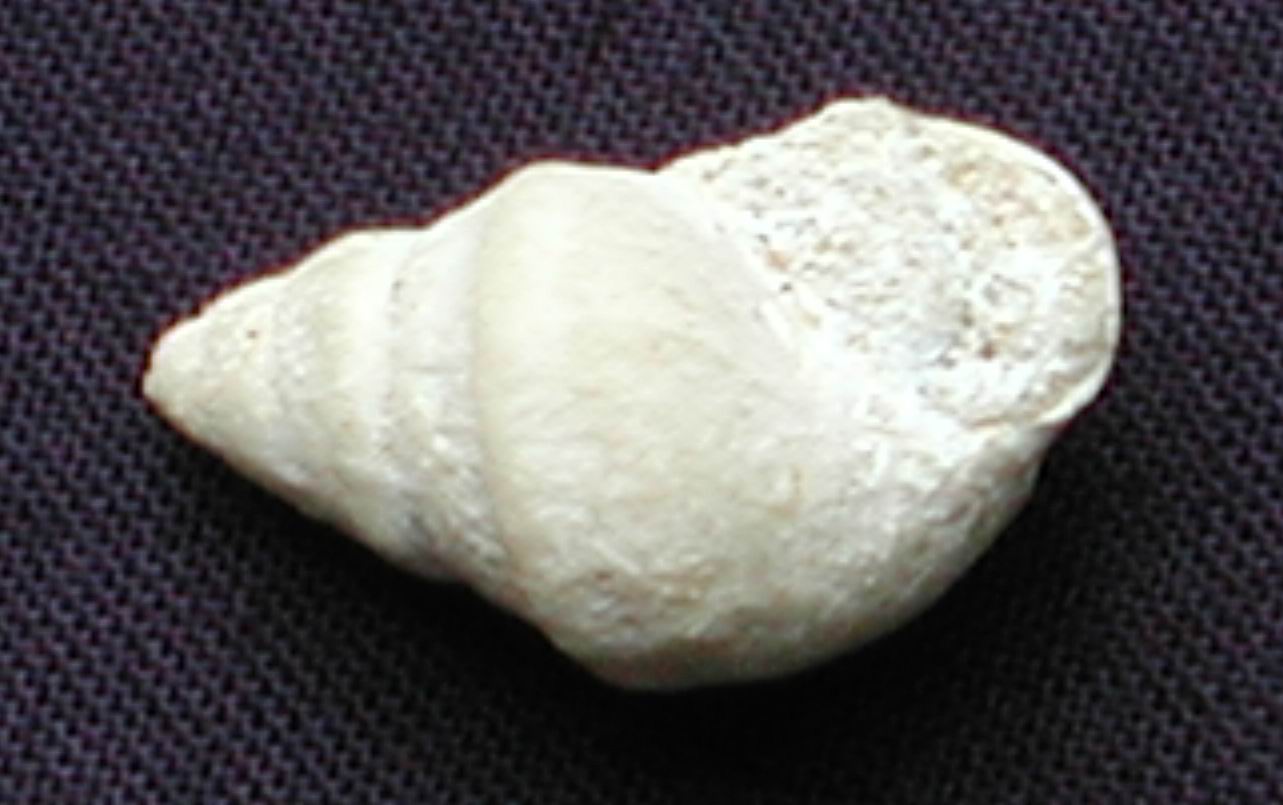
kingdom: Animalia
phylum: Mollusca
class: Gastropoda
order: Pleurotomariida
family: Pleurotomariidae
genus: Pleurotomaria
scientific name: Pleurotomaria obliqua
